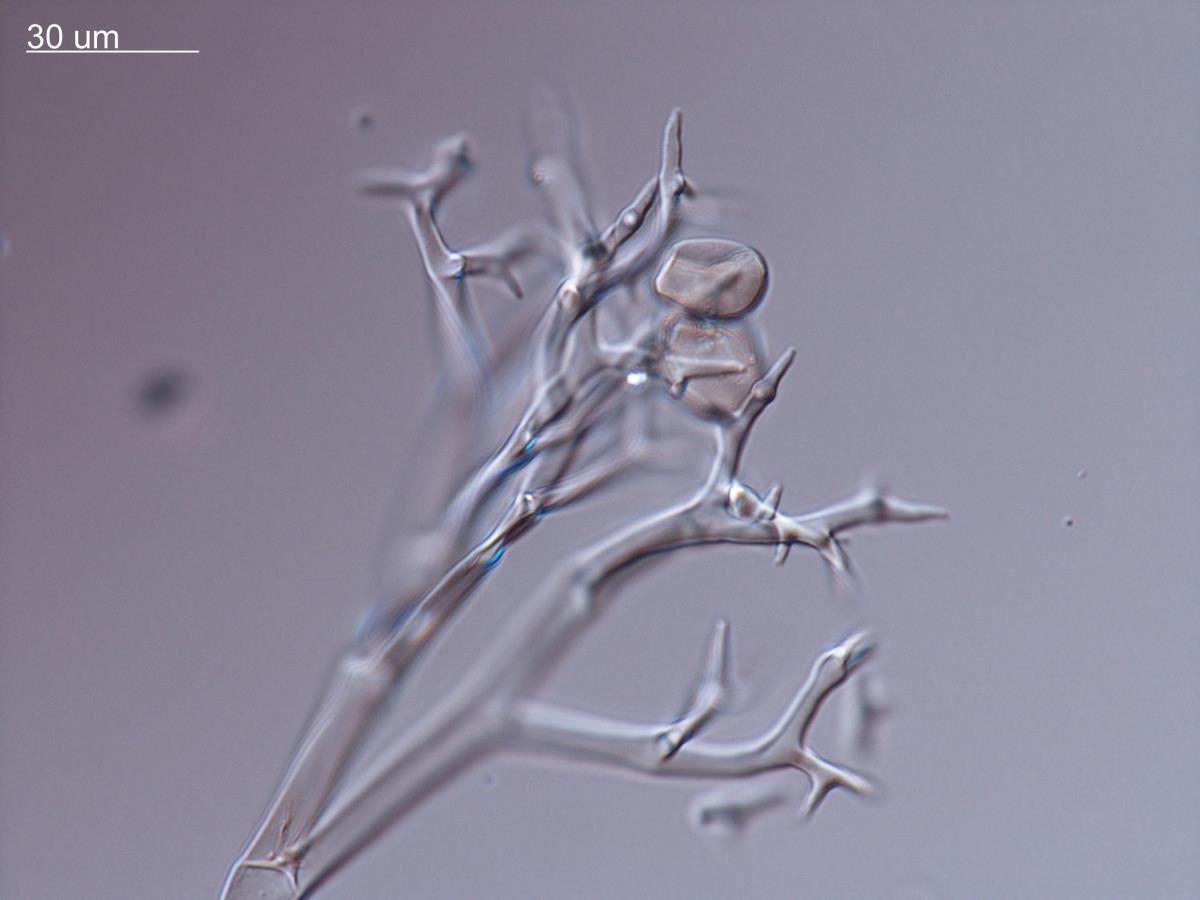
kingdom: Chromista
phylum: Oomycota
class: Peronosporea
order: Peronosporales
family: Peronosporaceae
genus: Peronospora
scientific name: Peronospora viciae
